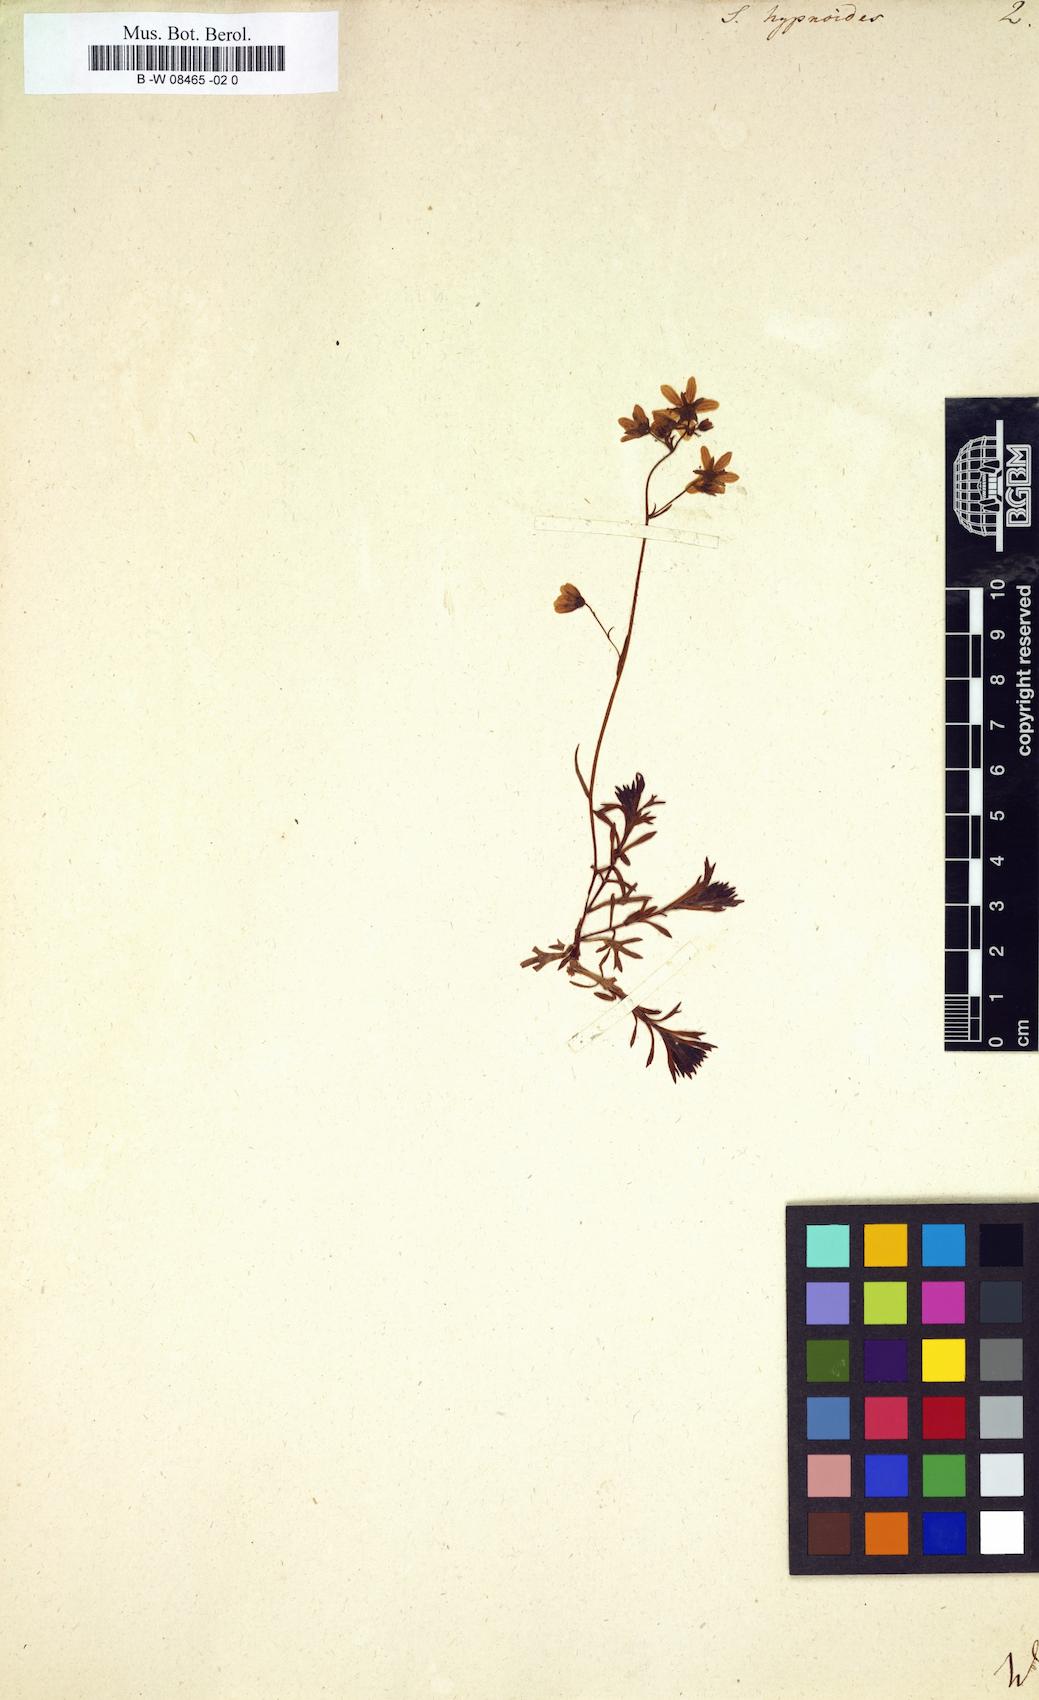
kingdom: Plantae
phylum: Tracheophyta
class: Magnoliopsida
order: Saxifragales
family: Saxifragaceae
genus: Saxifraga
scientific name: Saxifraga hypnoides
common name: Mossy saxifrage
